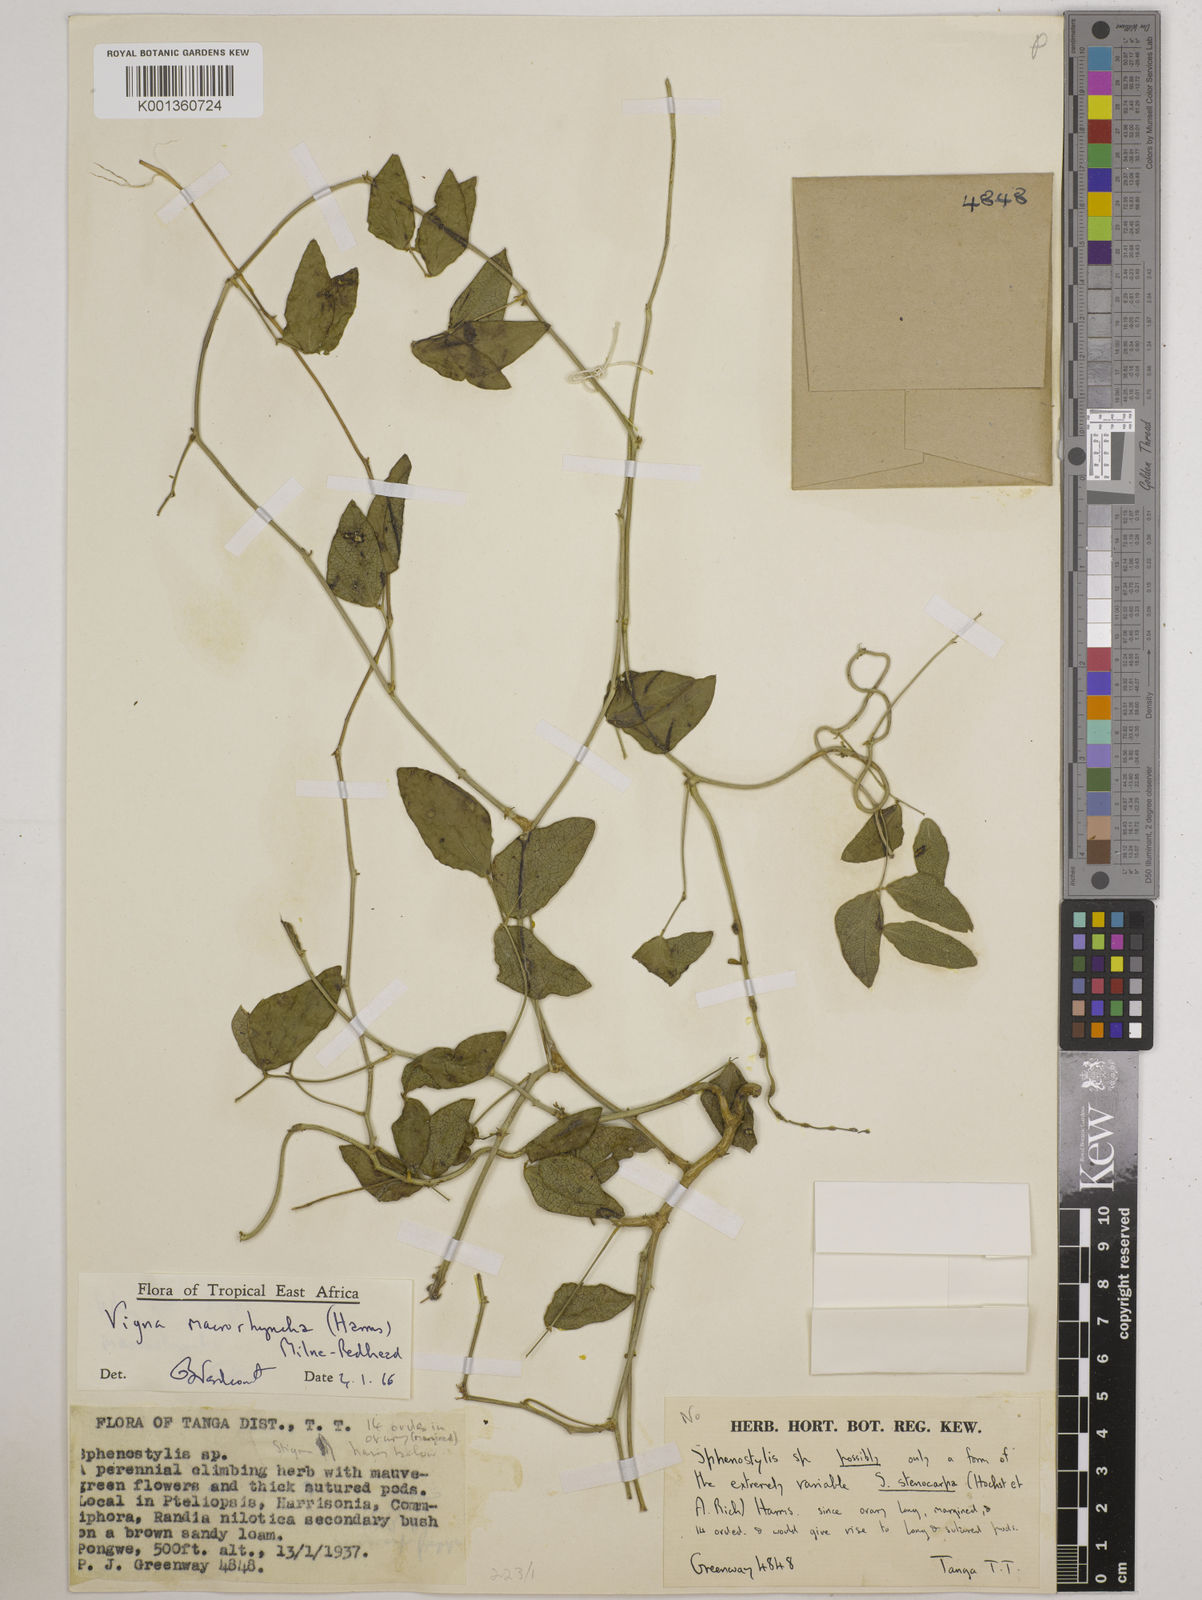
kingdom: Plantae
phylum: Tracheophyta
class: Magnoliopsida
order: Fabales
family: Fabaceae
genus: Wajira
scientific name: Wajira grahamiana
